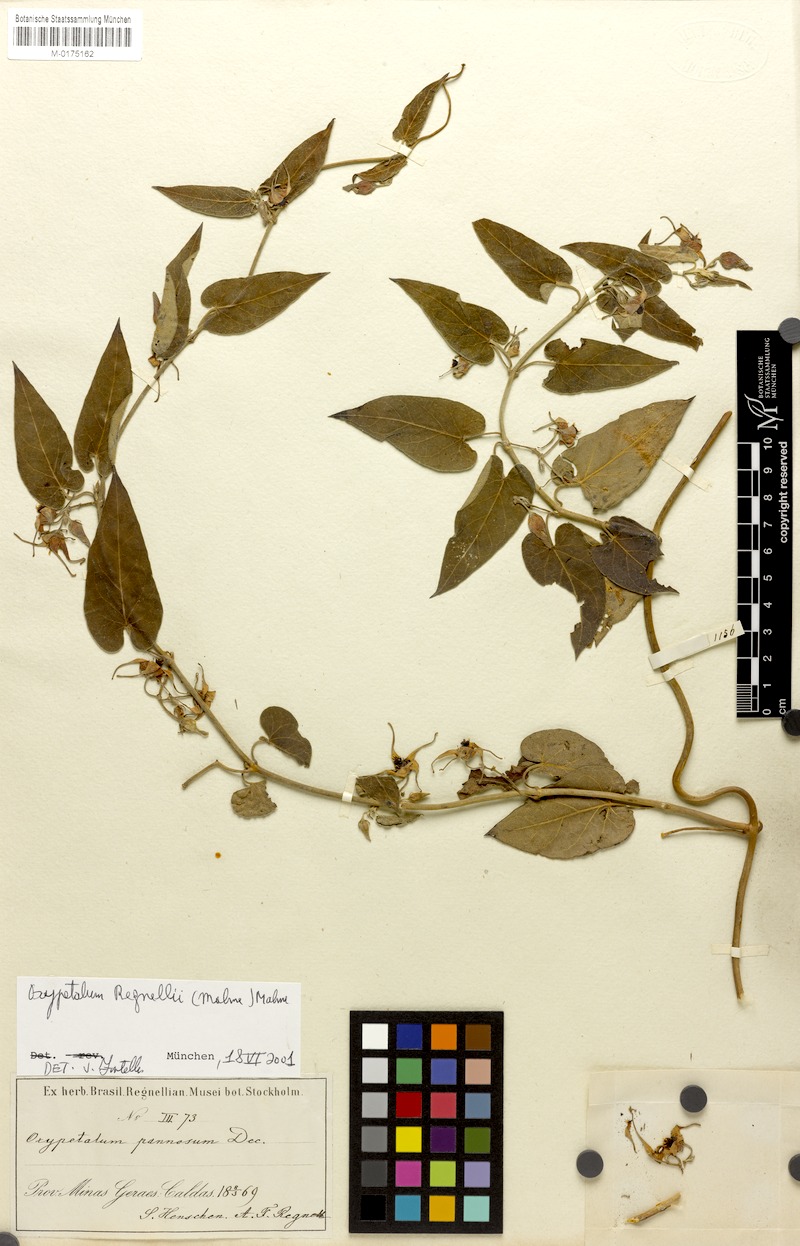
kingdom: Plantae
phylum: Tracheophyta
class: Magnoliopsida
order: Gentianales
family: Apocynaceae
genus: Oxypetalum
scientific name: Oxypetalum regnellii
